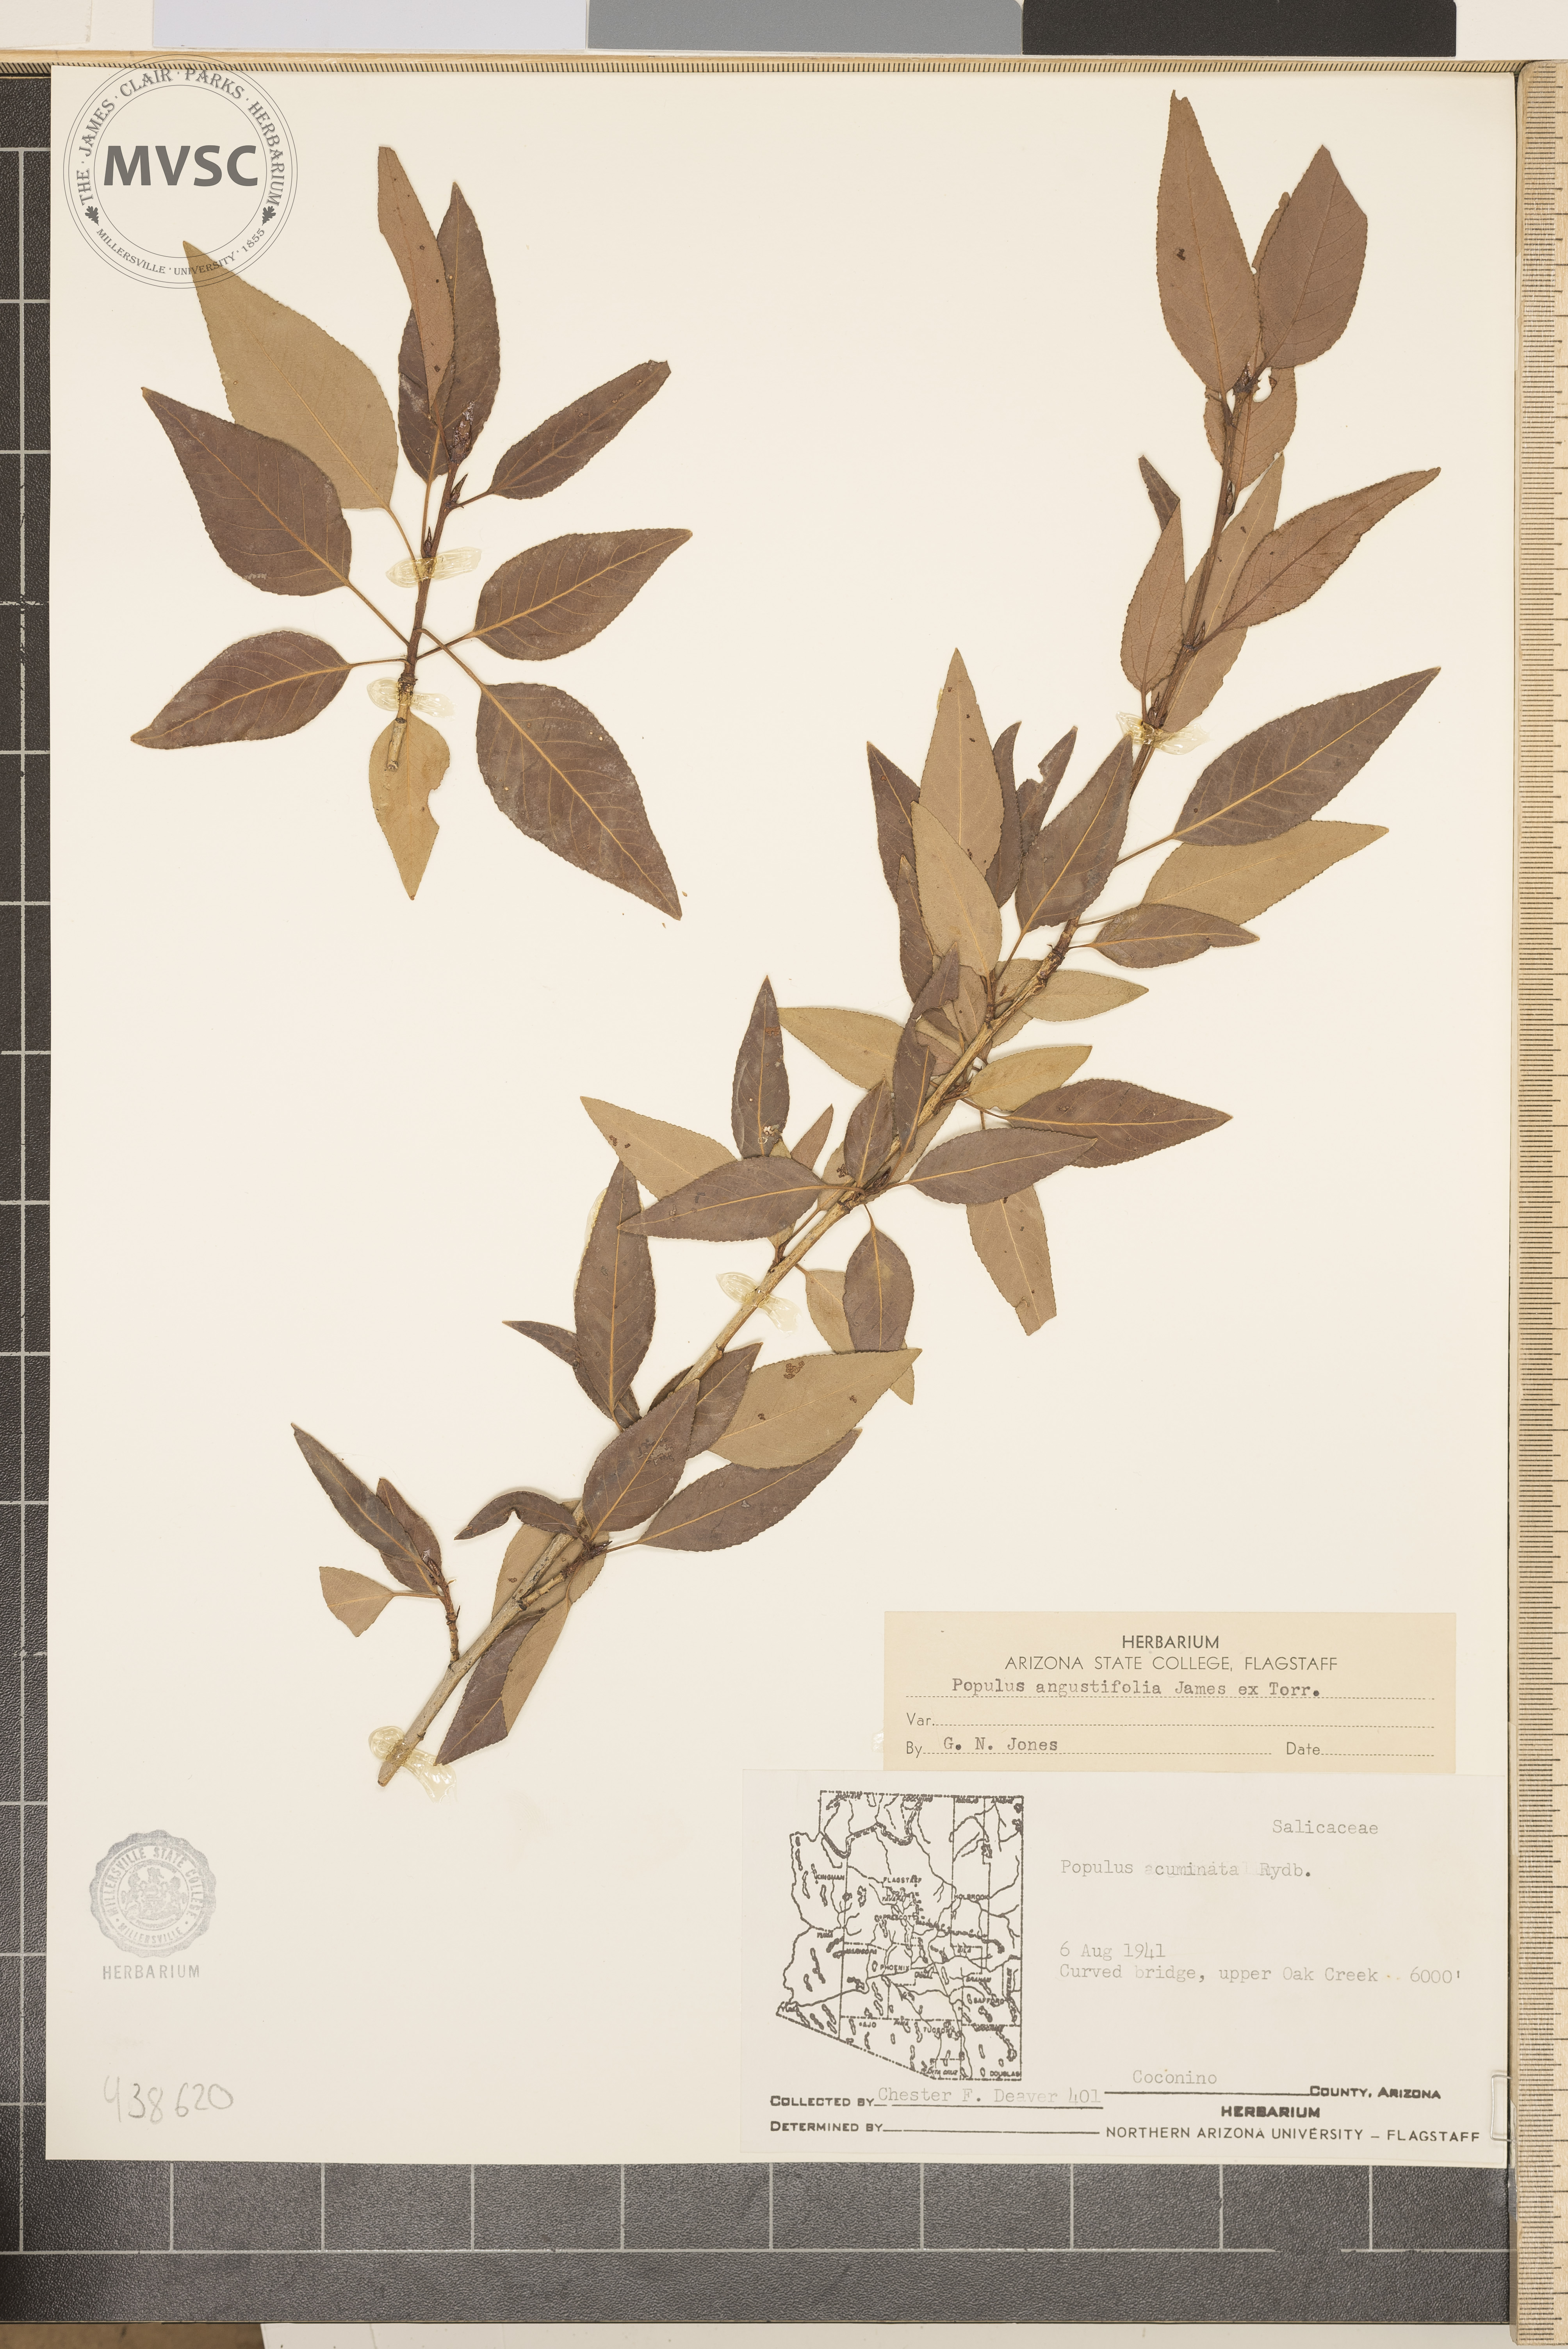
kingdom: Plantae
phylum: Tracheophyta
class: Magnoliopsida
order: Malpighiales
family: Salicaceae
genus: Populus
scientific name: Populus angustifolia
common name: Willow cottonwood
